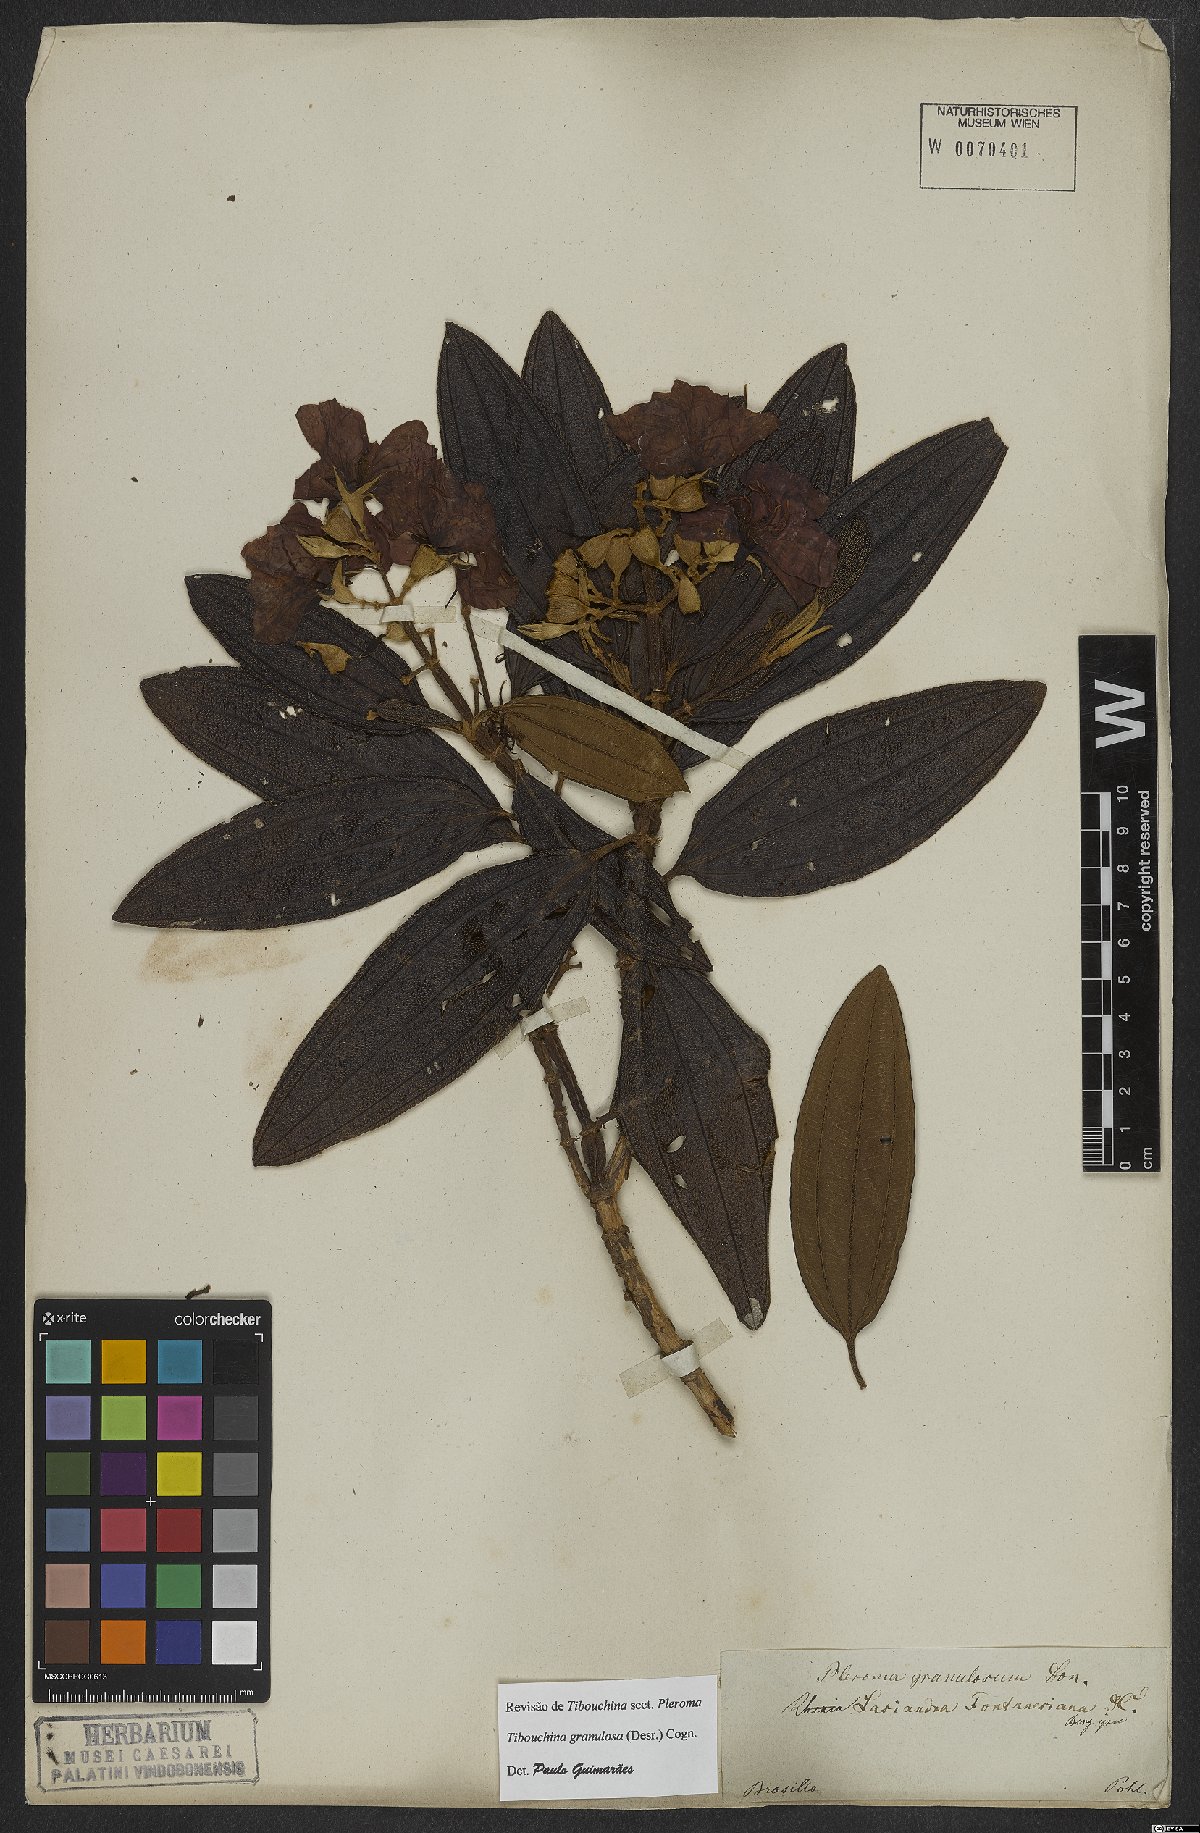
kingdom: Plantae
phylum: Tracheophyta
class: Magnoliopsida
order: Myrtales
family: Melastomataceae
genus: Pleroma
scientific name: Pleroma granulosum
